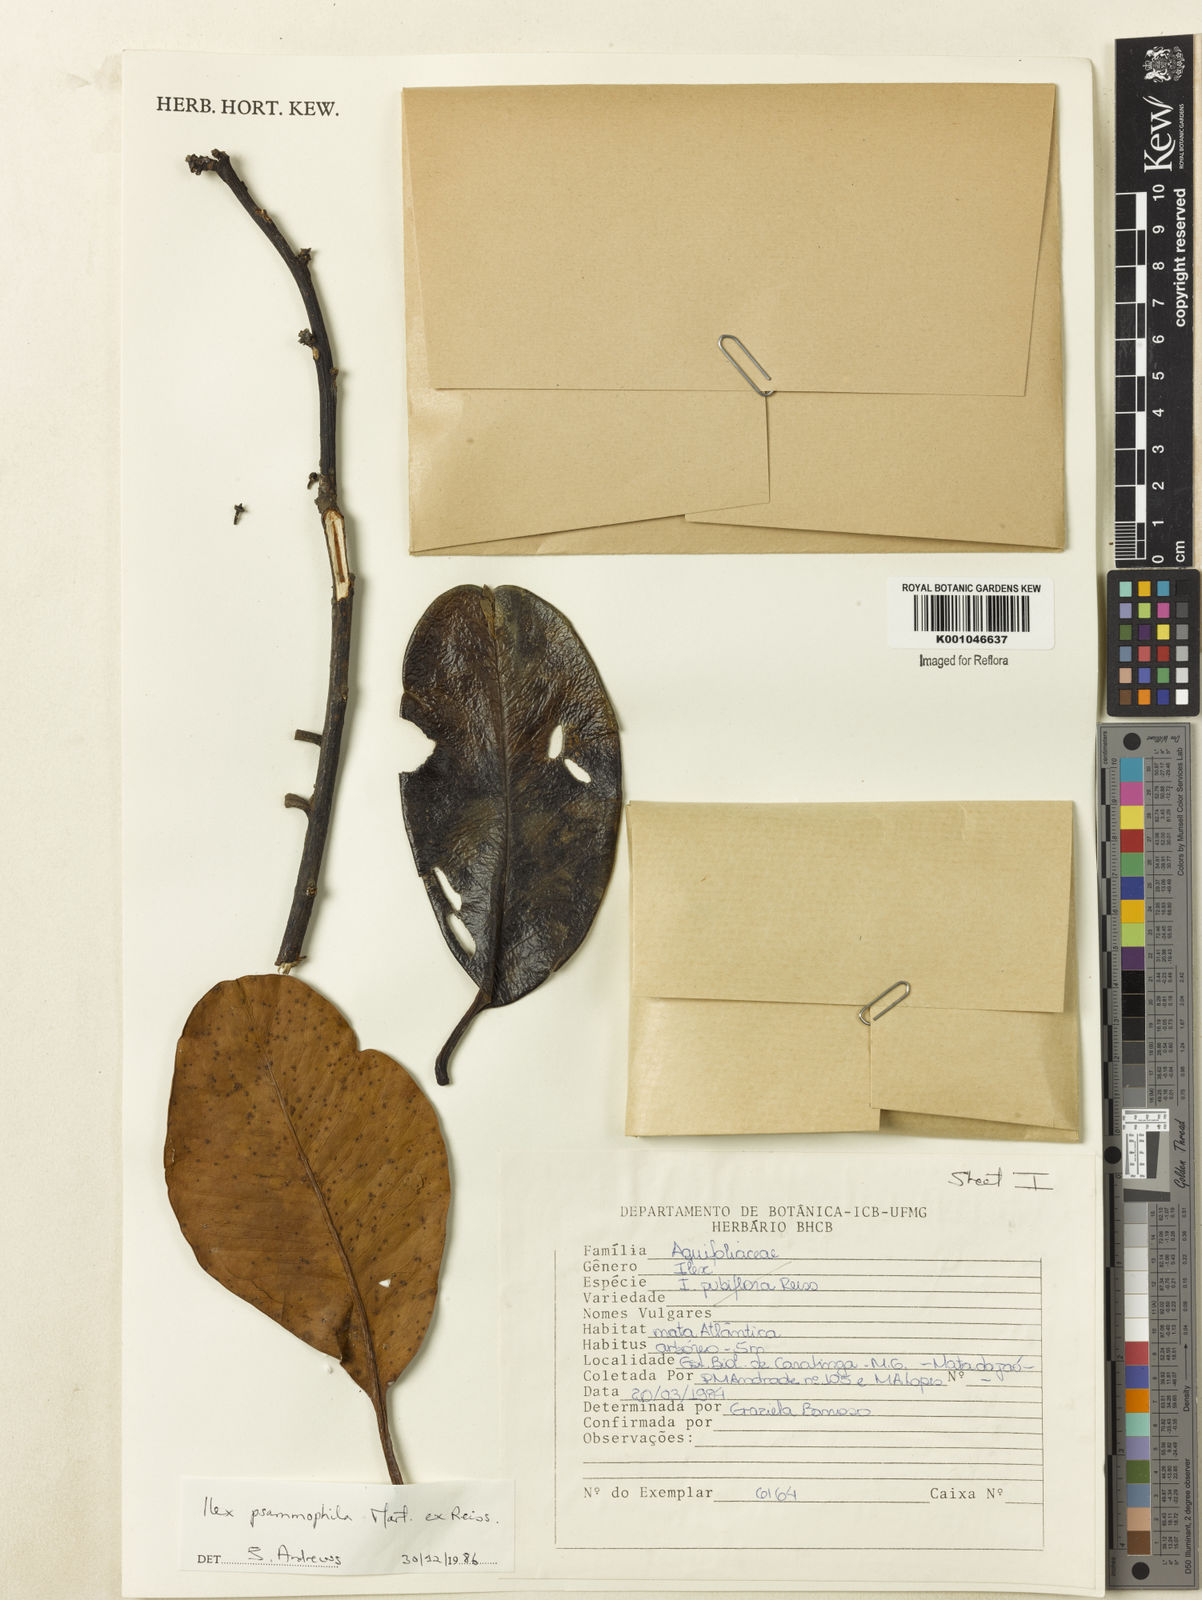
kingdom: Plantae
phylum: Tracheophyta
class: Magnoliopsida
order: Aquifoliales
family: Aquifoliaceae
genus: Ilex
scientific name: Ilex psammophila
